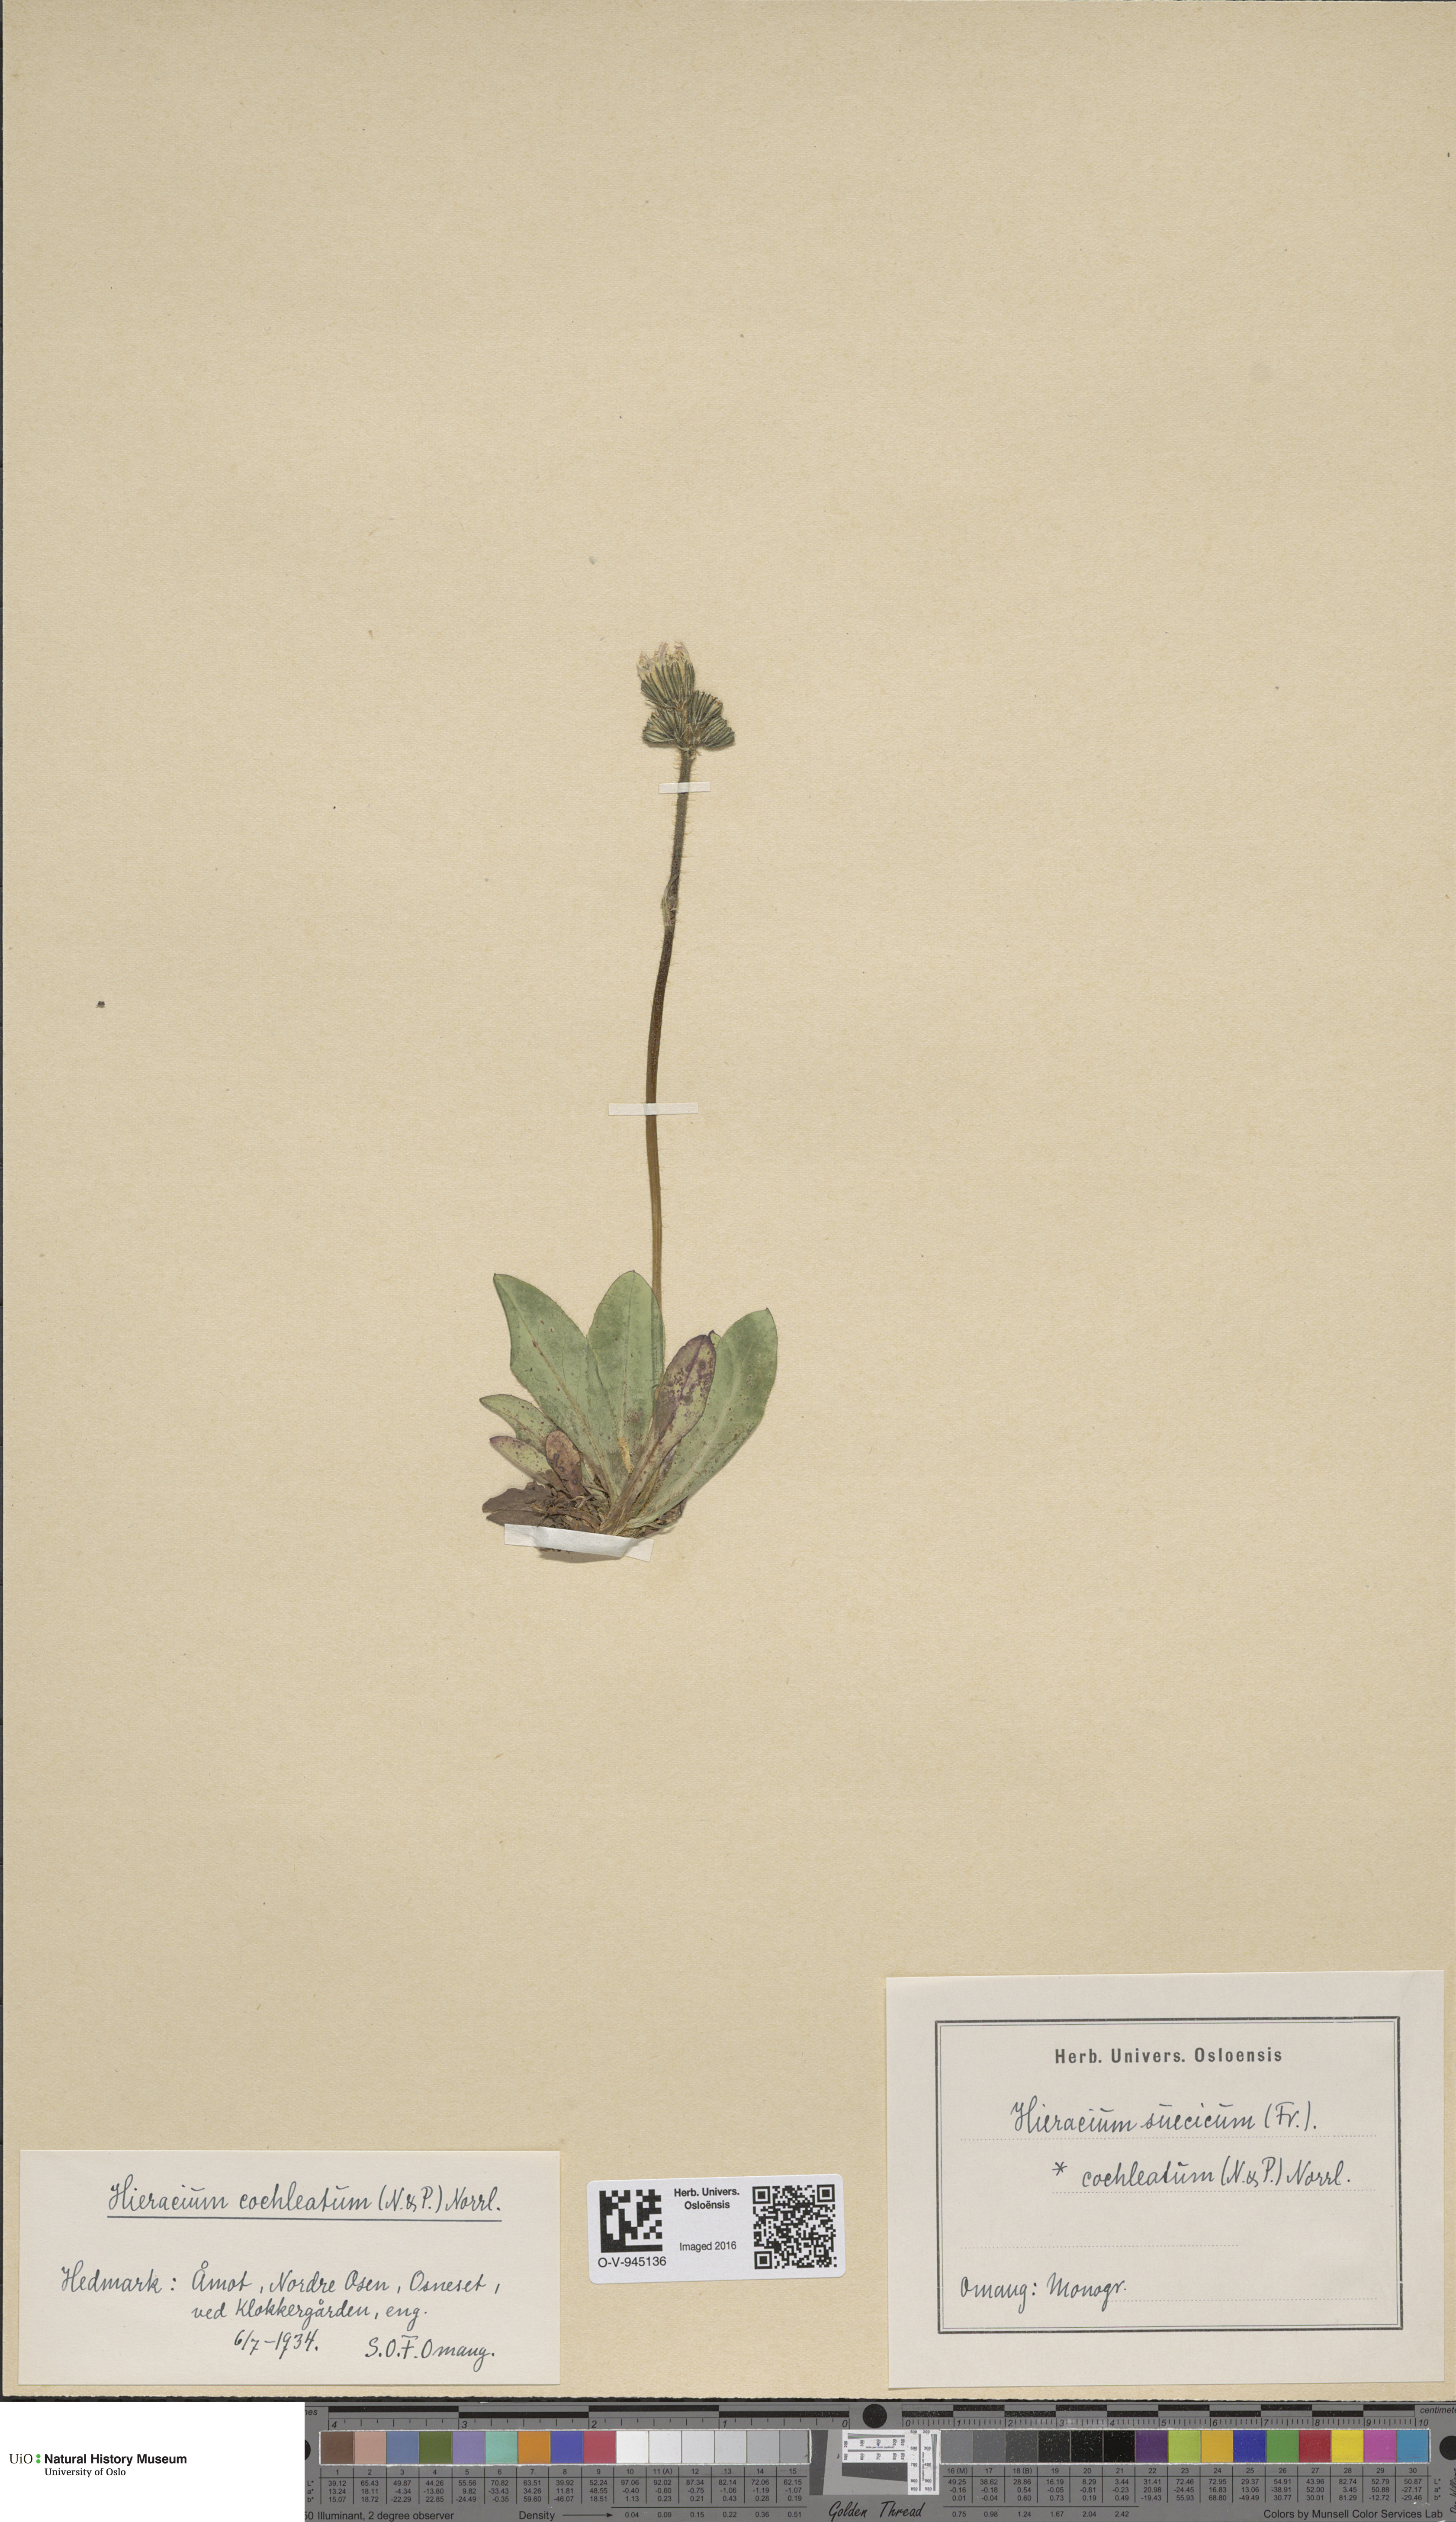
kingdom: Plantae
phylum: Tracheophyta
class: Magnoliopsida
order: Asterales
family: Asteraceae
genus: Pilosella
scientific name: Pilosella dubia
